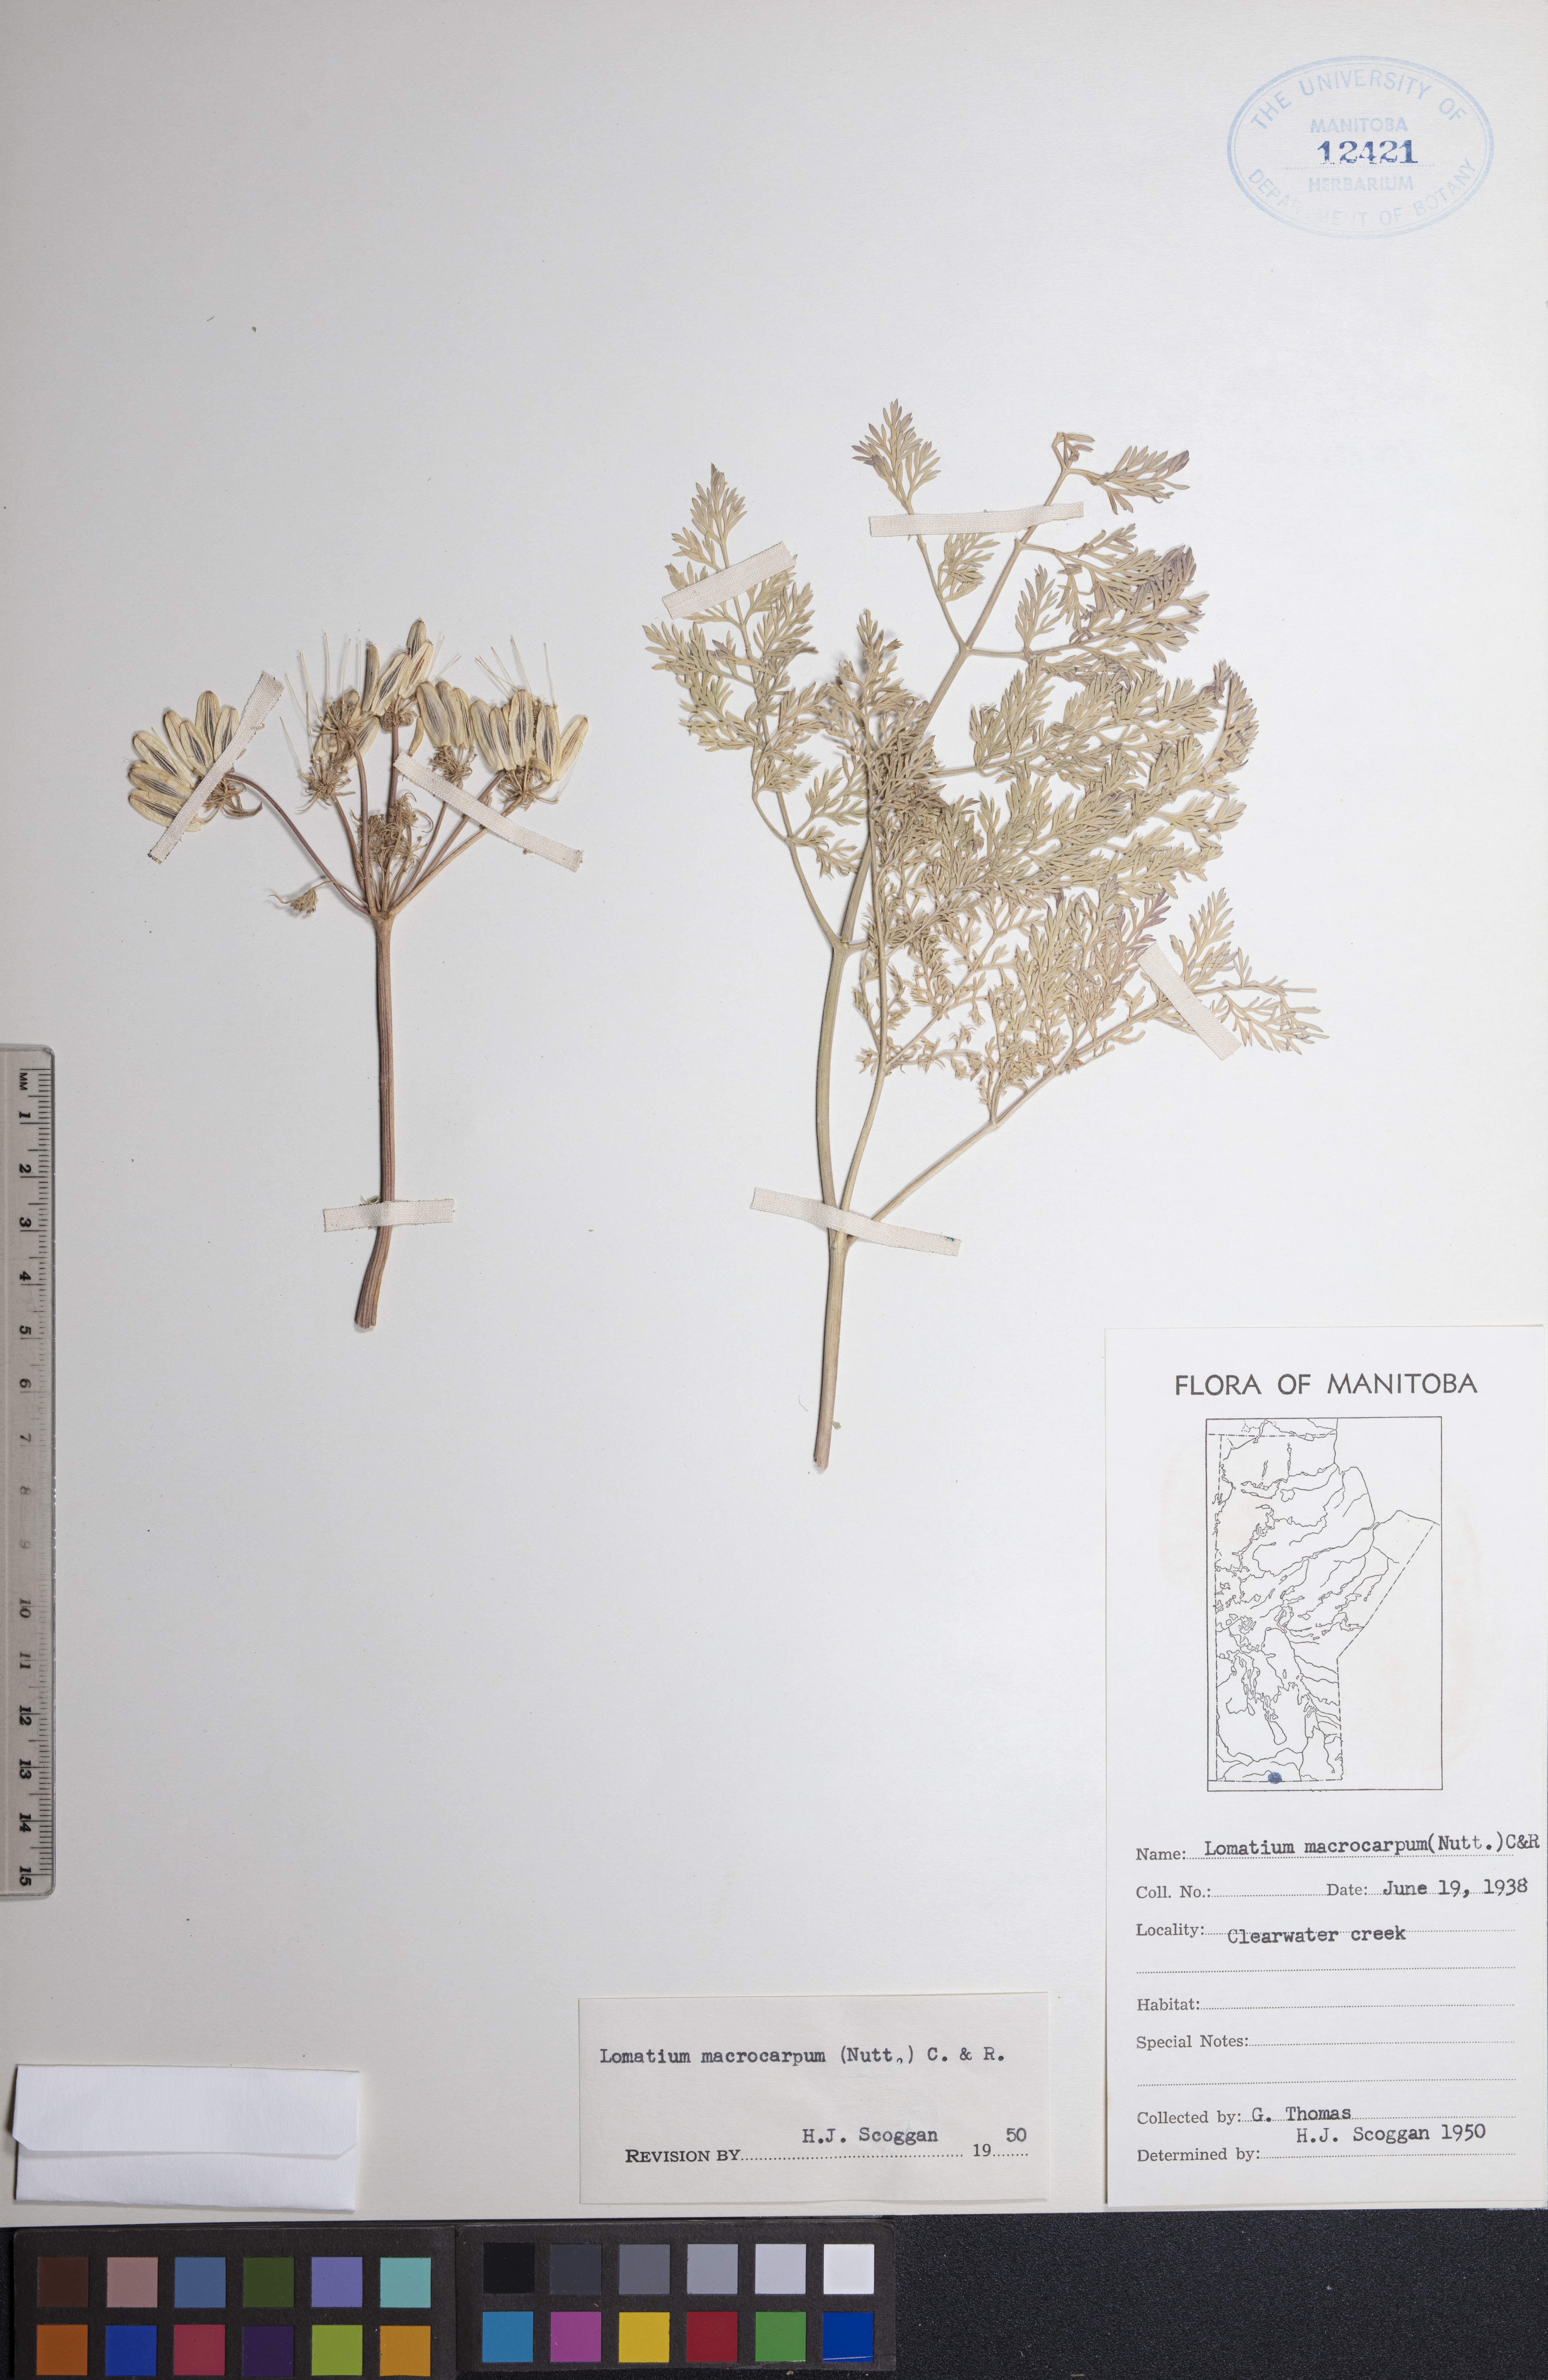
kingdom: Plantae
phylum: Tracheophyta
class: Magnoliopsida
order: Apiales
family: Apiaceae
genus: Lomatium
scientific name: Lomatium macrocarpum
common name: Big-seed biscuitroot
